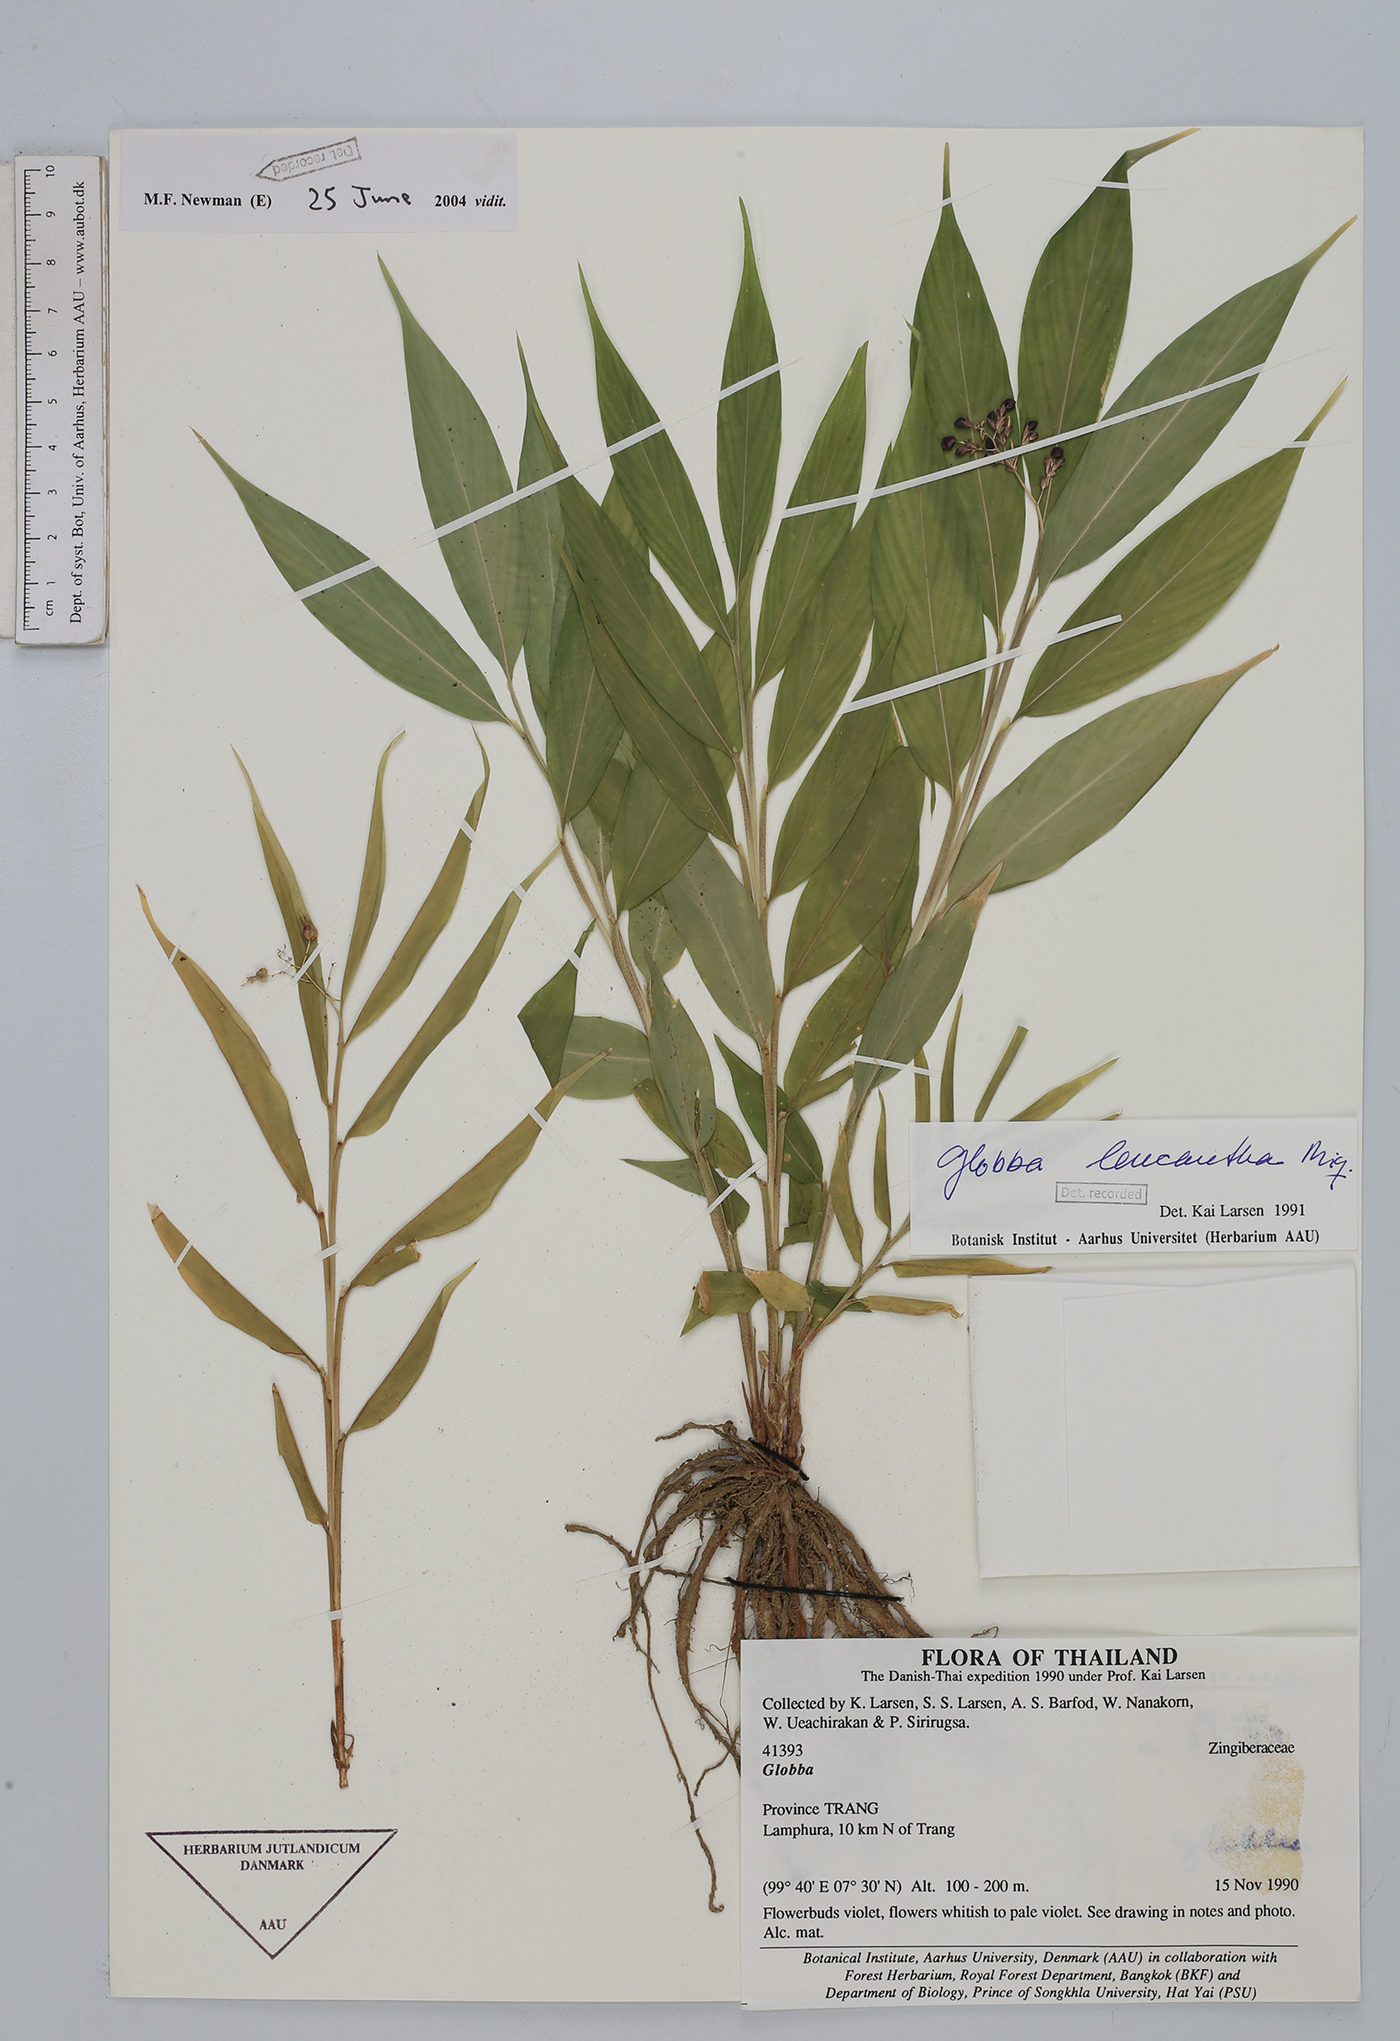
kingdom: Plantae
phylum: Tracheophyta
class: Liliopsida
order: Zingiberales
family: Zingiberaceae
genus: Globba
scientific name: Globba leucantha
